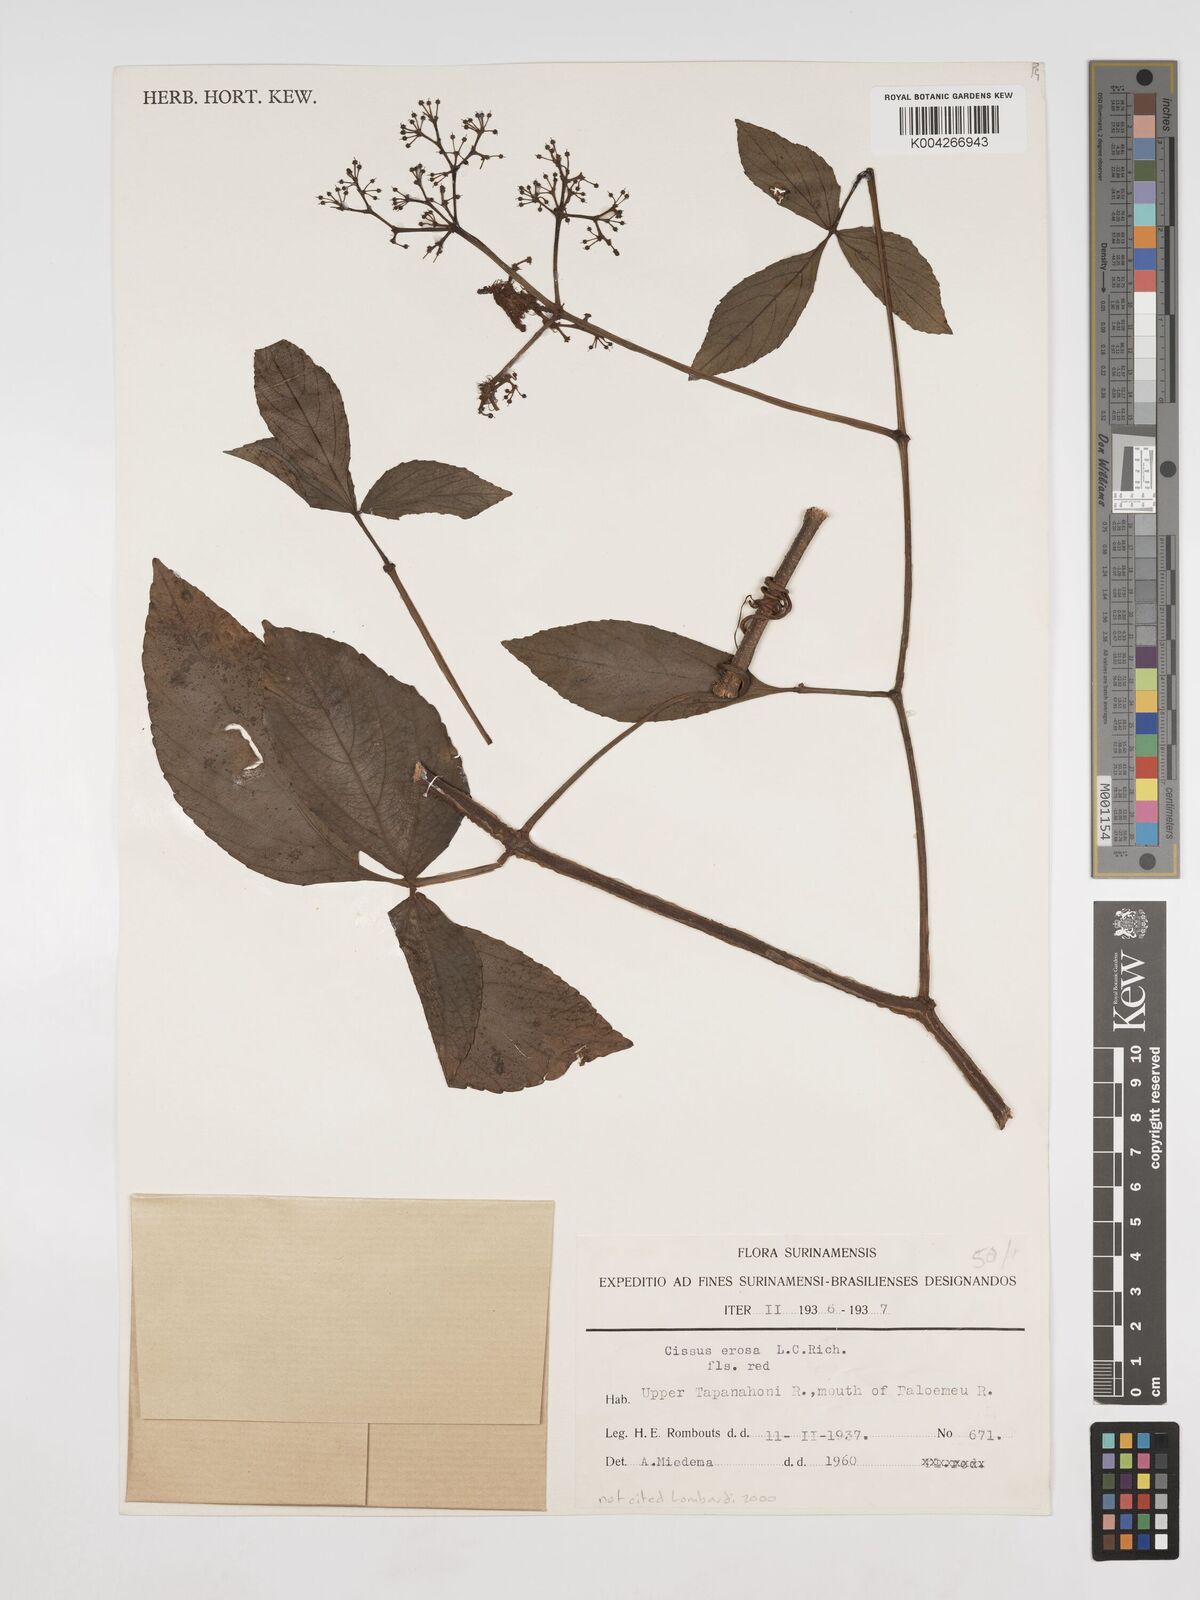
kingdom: Plantae
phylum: Tracheophyta
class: Magnoliopsida
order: Vitales
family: Vitaceae
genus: Cissus
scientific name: Cissus erosa
